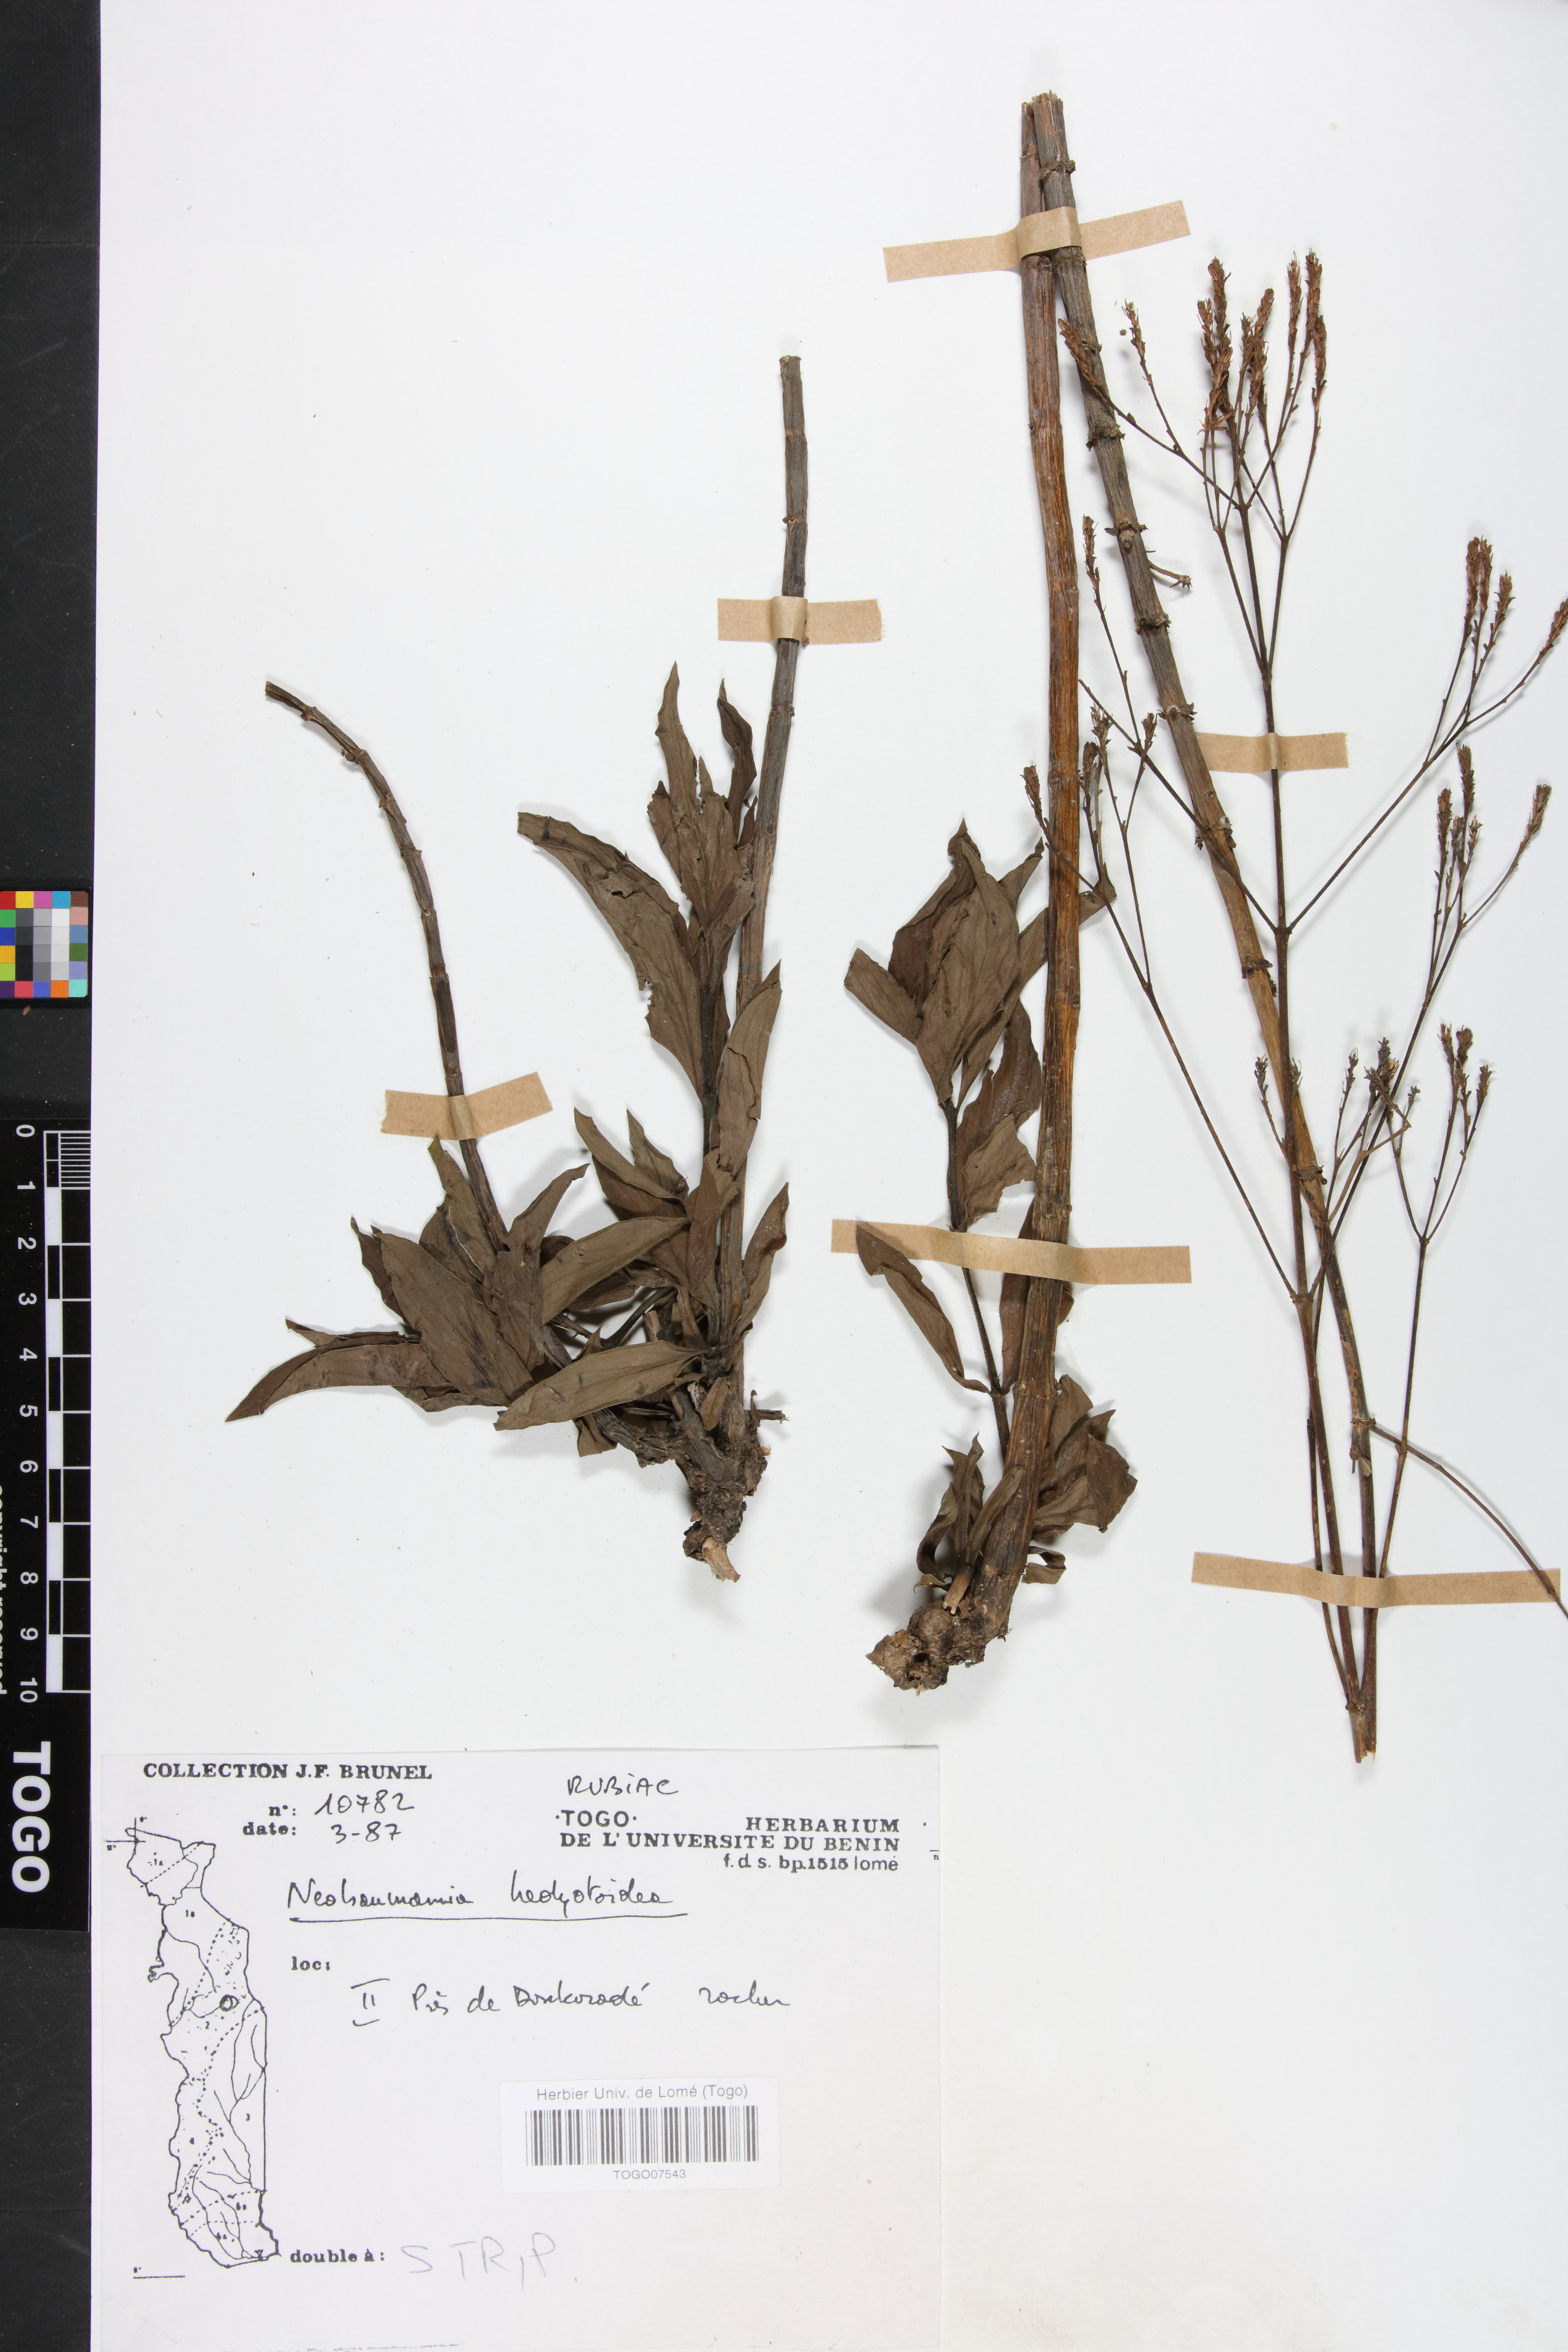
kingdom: Plantae
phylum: Tracheophyta
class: Magnoliopsida
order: Gentianales
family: Rubiaceae
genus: Knoxia
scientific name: Knoxia hedyotoidea
